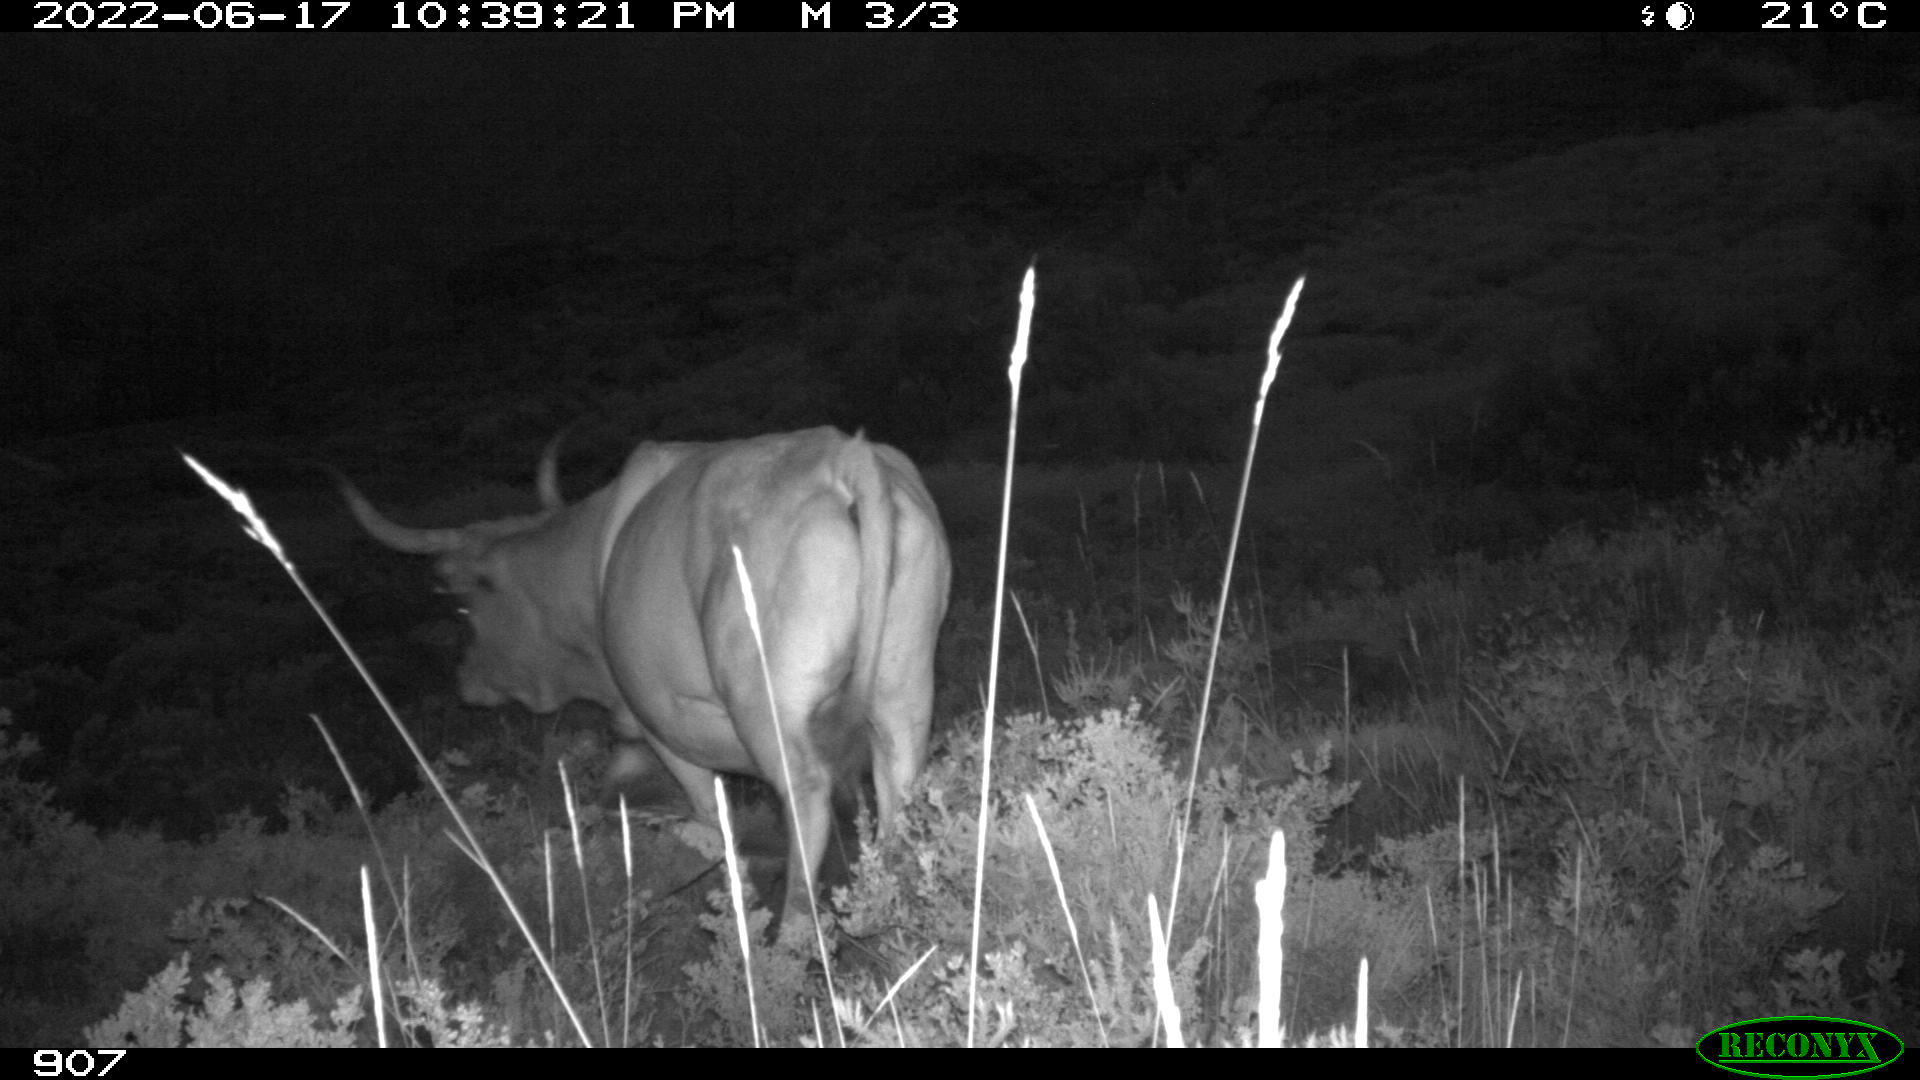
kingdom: Animalia
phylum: Chordata
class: Mammalia
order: Artiodactyla
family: Bovidae
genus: Bos
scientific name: Bos taurus
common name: Domesticated cattle
